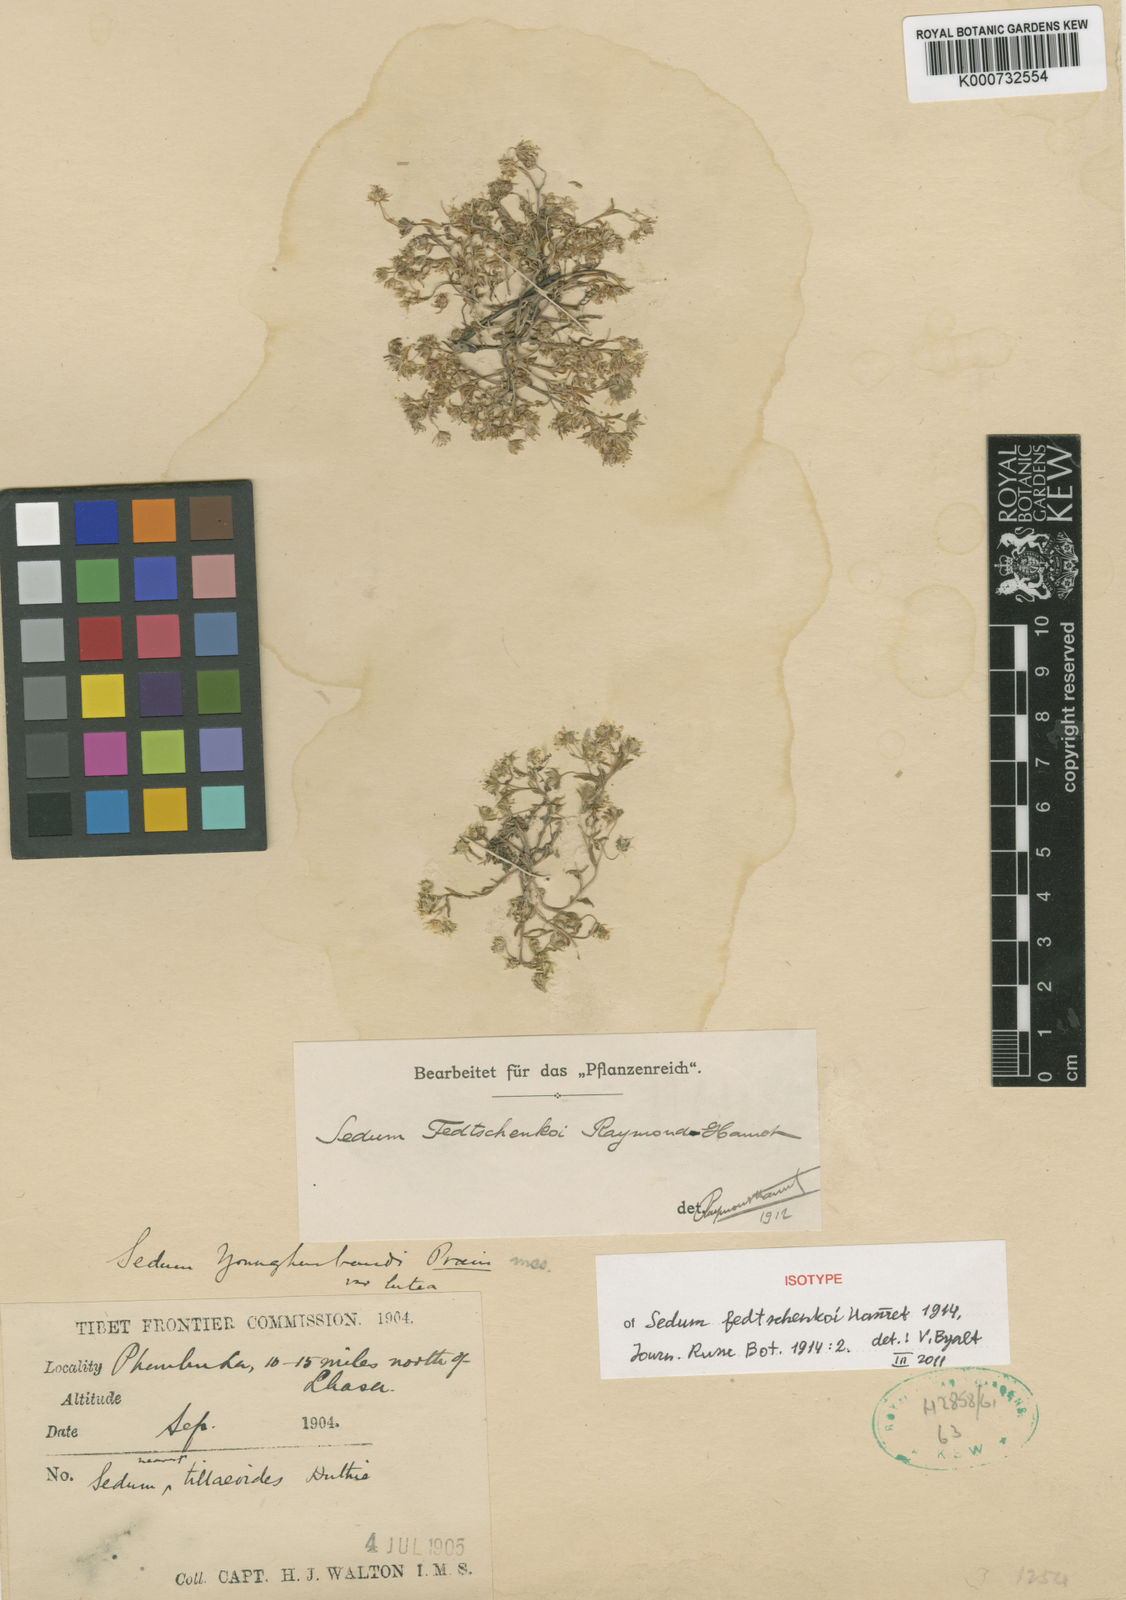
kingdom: Plantae
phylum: Tracheophyta
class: Magnoliopsida
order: Saxifragales
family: Crassulaceae
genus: Sedum
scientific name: Sedum fedtschenkoi
